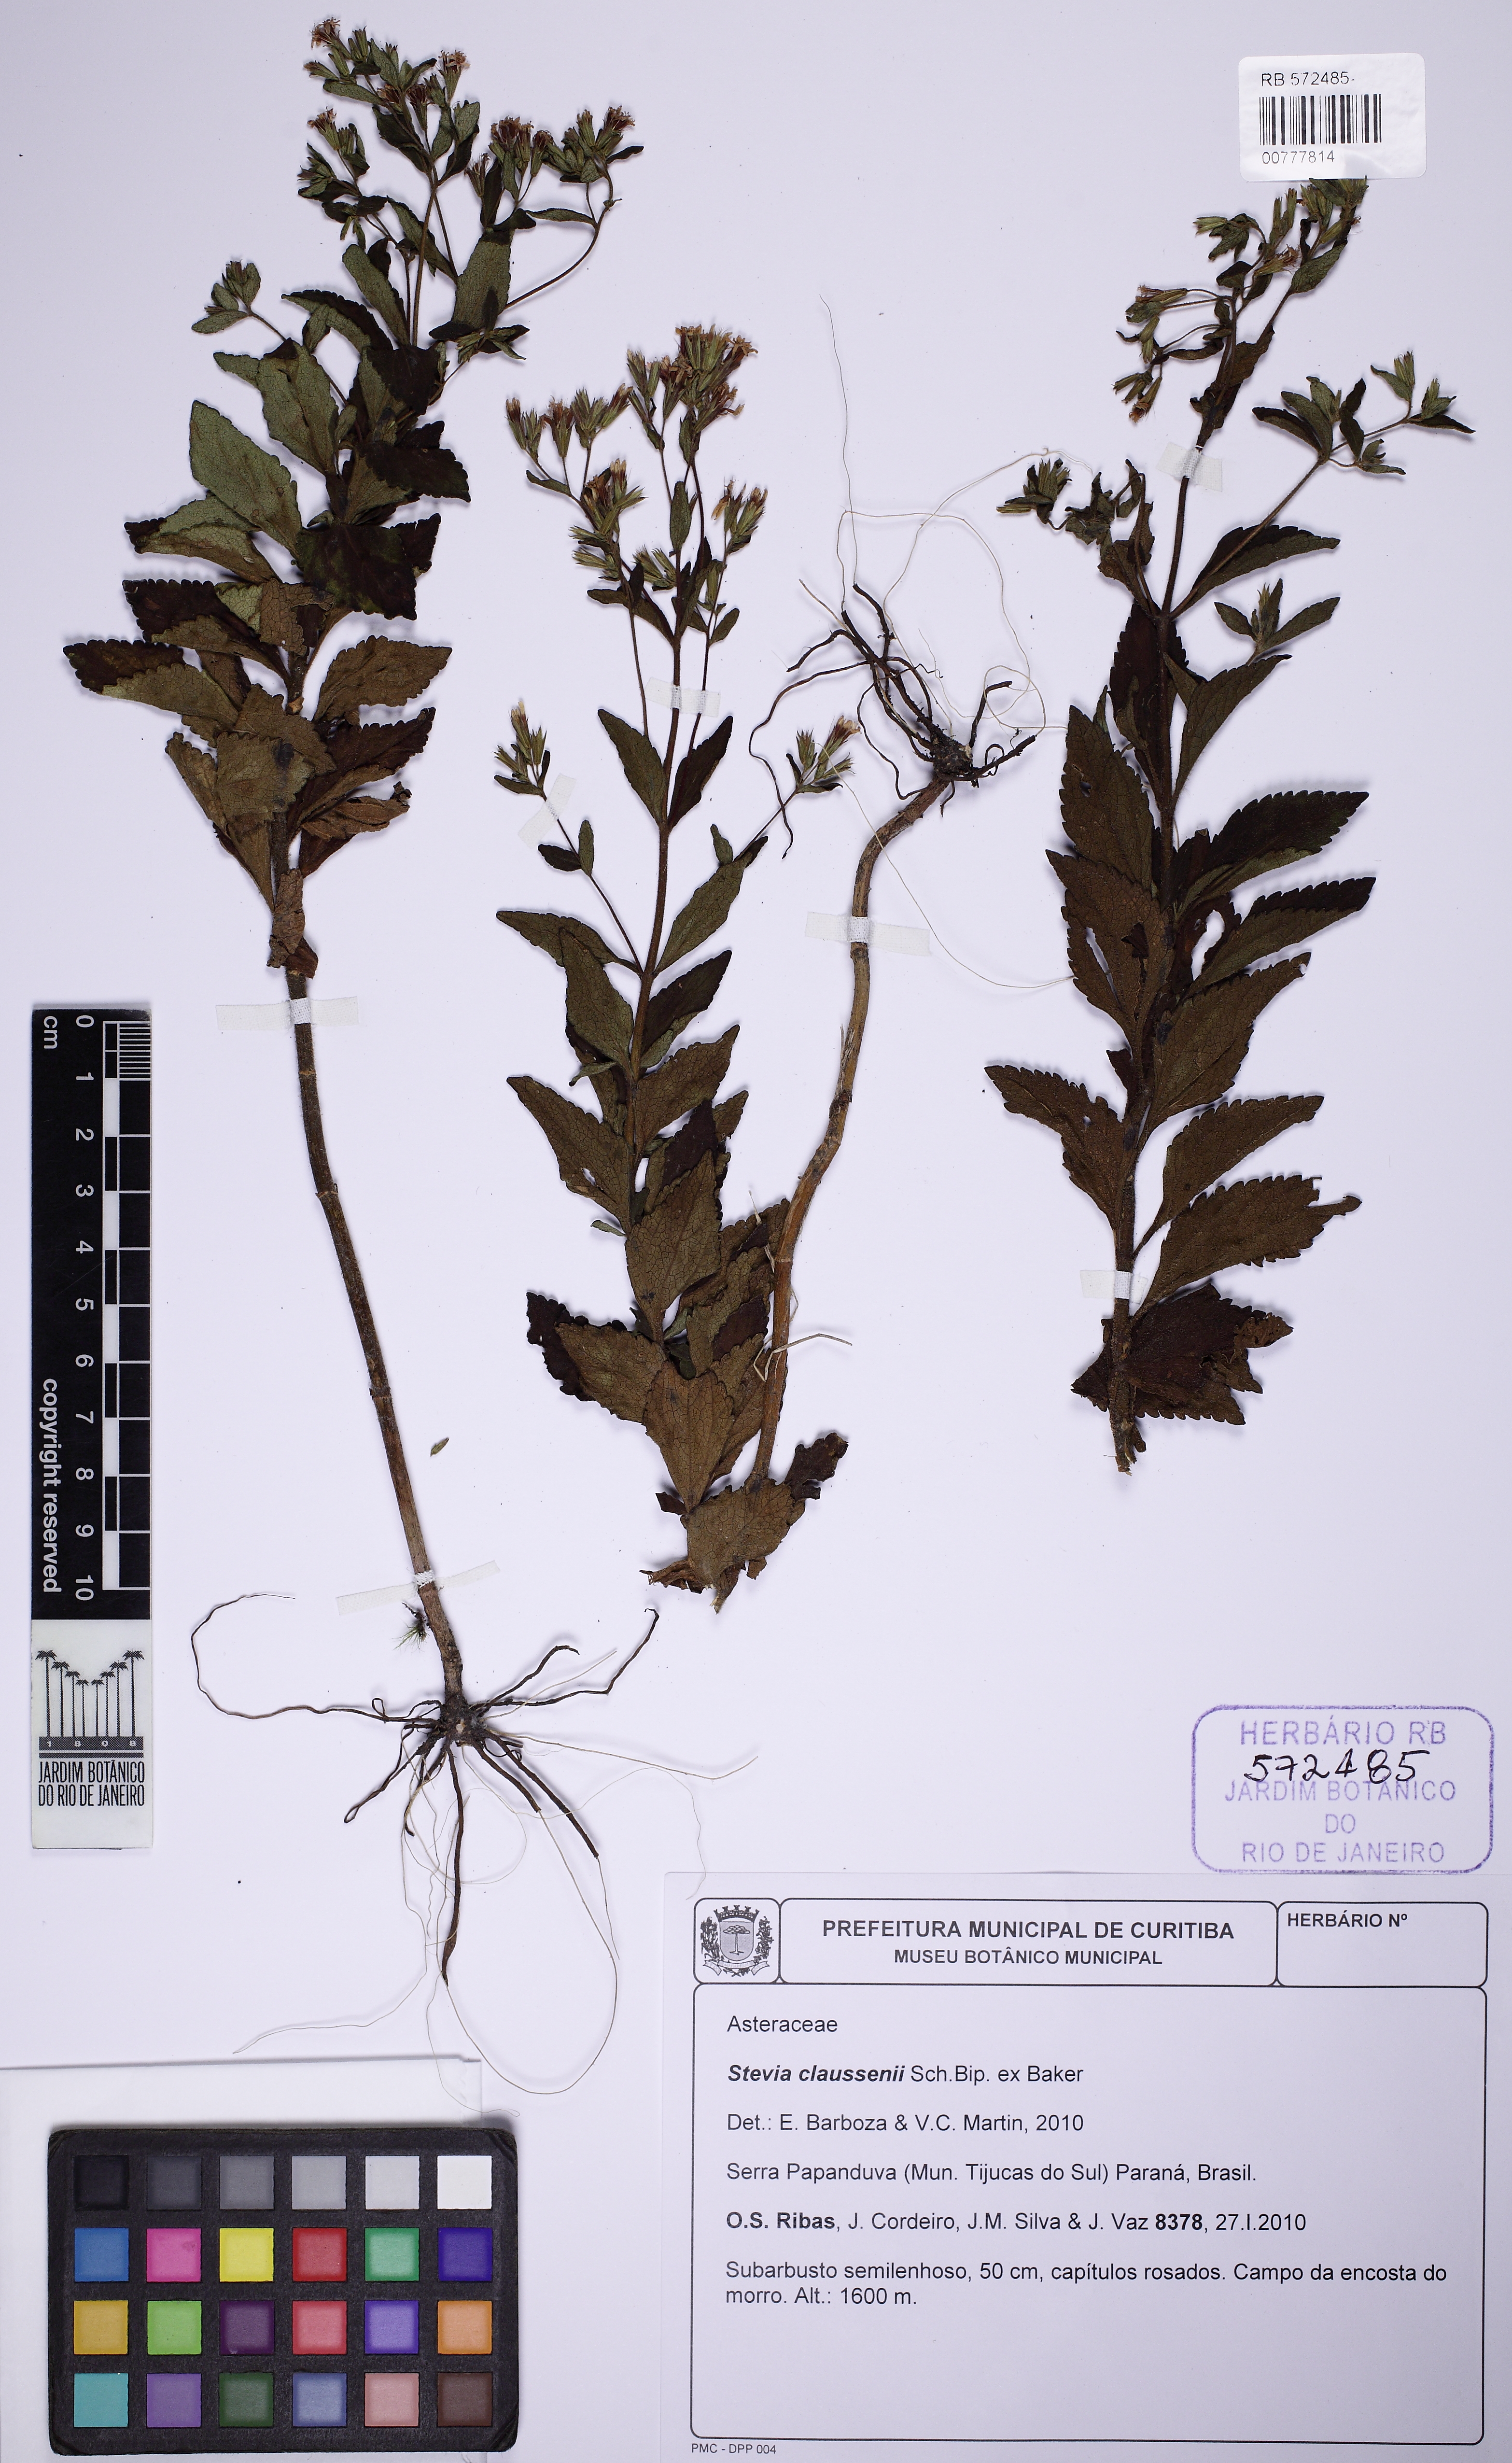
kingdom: Plantae
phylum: Tracheophyta
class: Magnoliopsida
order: Asterales
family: Asteraceae
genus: Stevia
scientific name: Stevia claussenii
